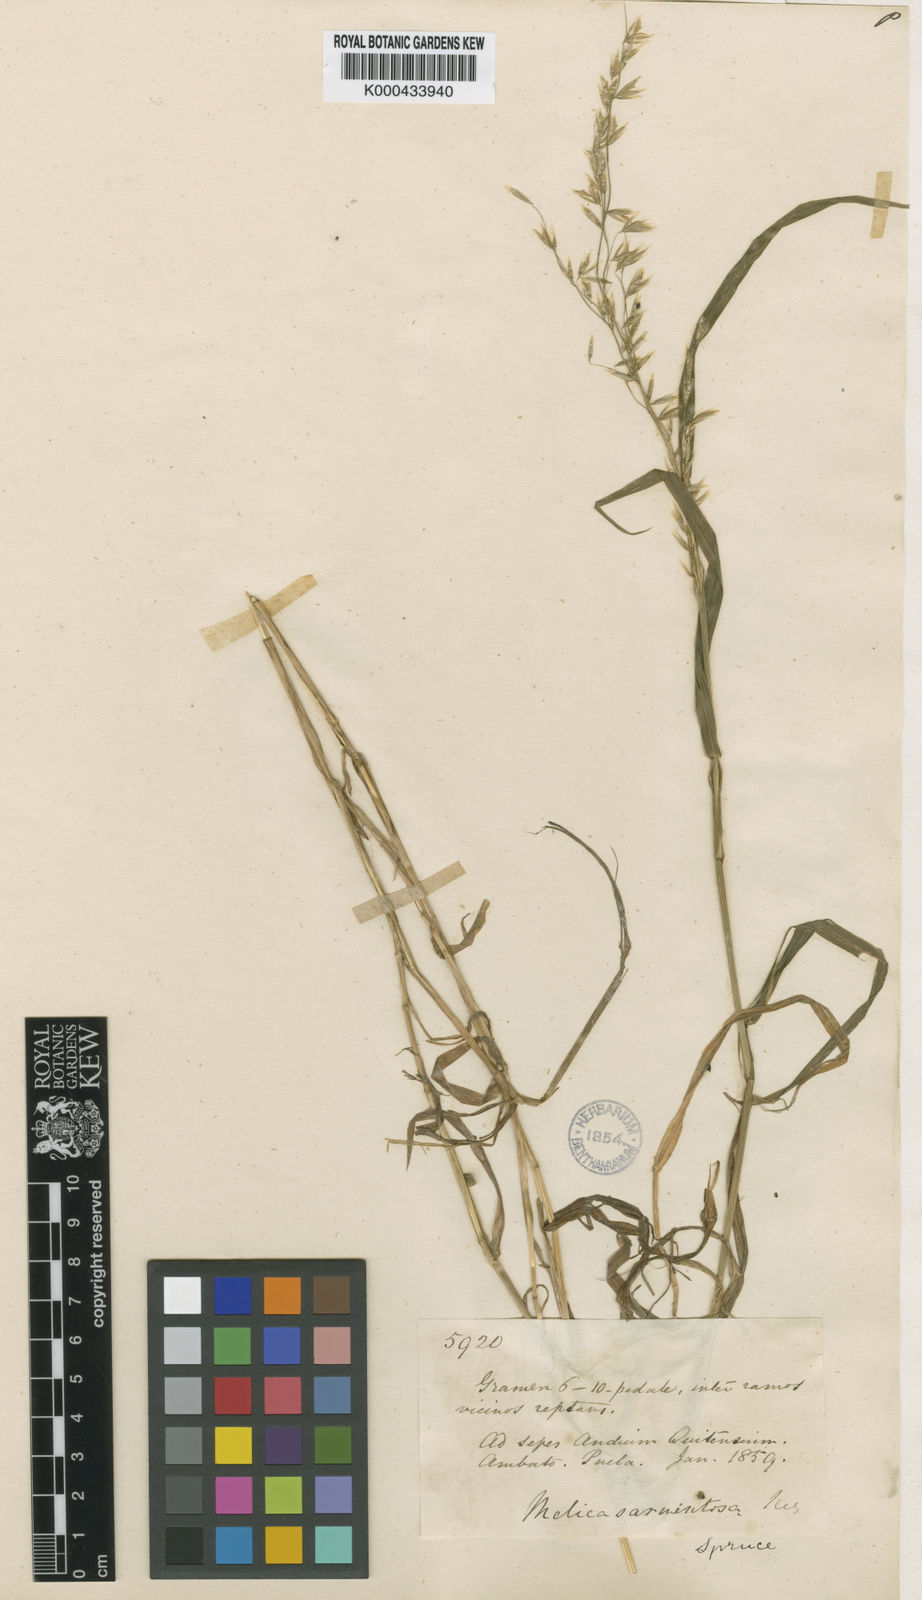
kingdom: Plantae
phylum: Tracheophyta
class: Liliopsida
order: Poales
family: Poaceae
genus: Melica
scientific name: Melica
